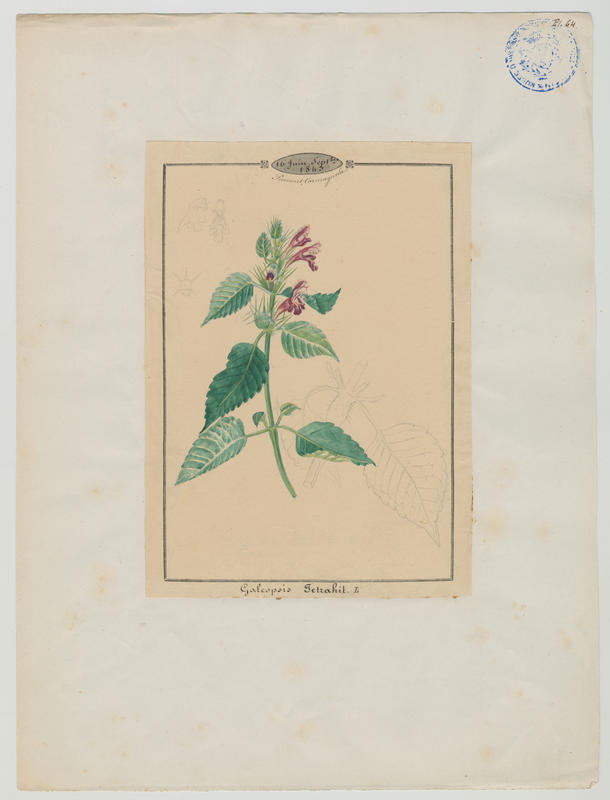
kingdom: Plantae
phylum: Tracheophyta
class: Magnoliopsida
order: Lamiales
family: Lamiaceae
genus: Galeopsis
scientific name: Galeopsis tetrahit
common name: Common hemp-nettle
